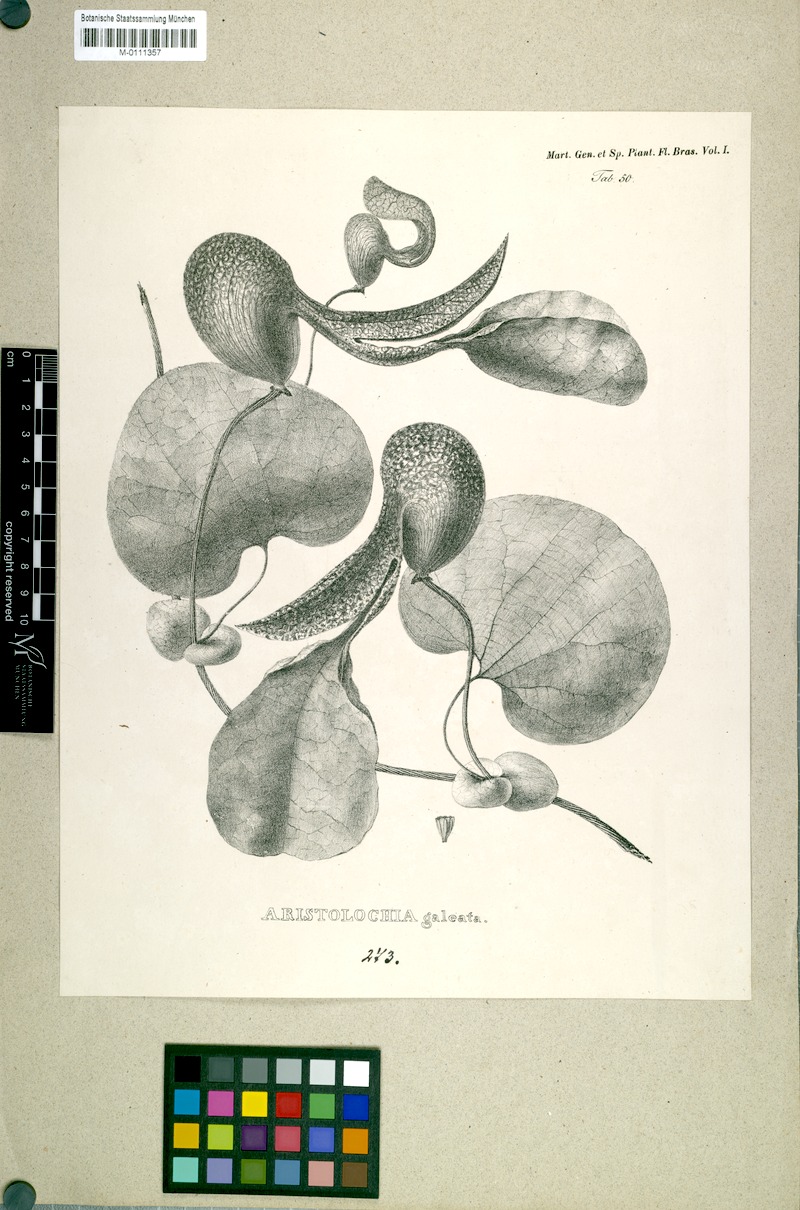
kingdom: Plantae
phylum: Tracheophyta
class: Magnoliopsida
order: Piperales
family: Aristolochiaceae
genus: Aristolochia
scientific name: Aristolochia labiata
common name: Mottled dutchman's pipe
